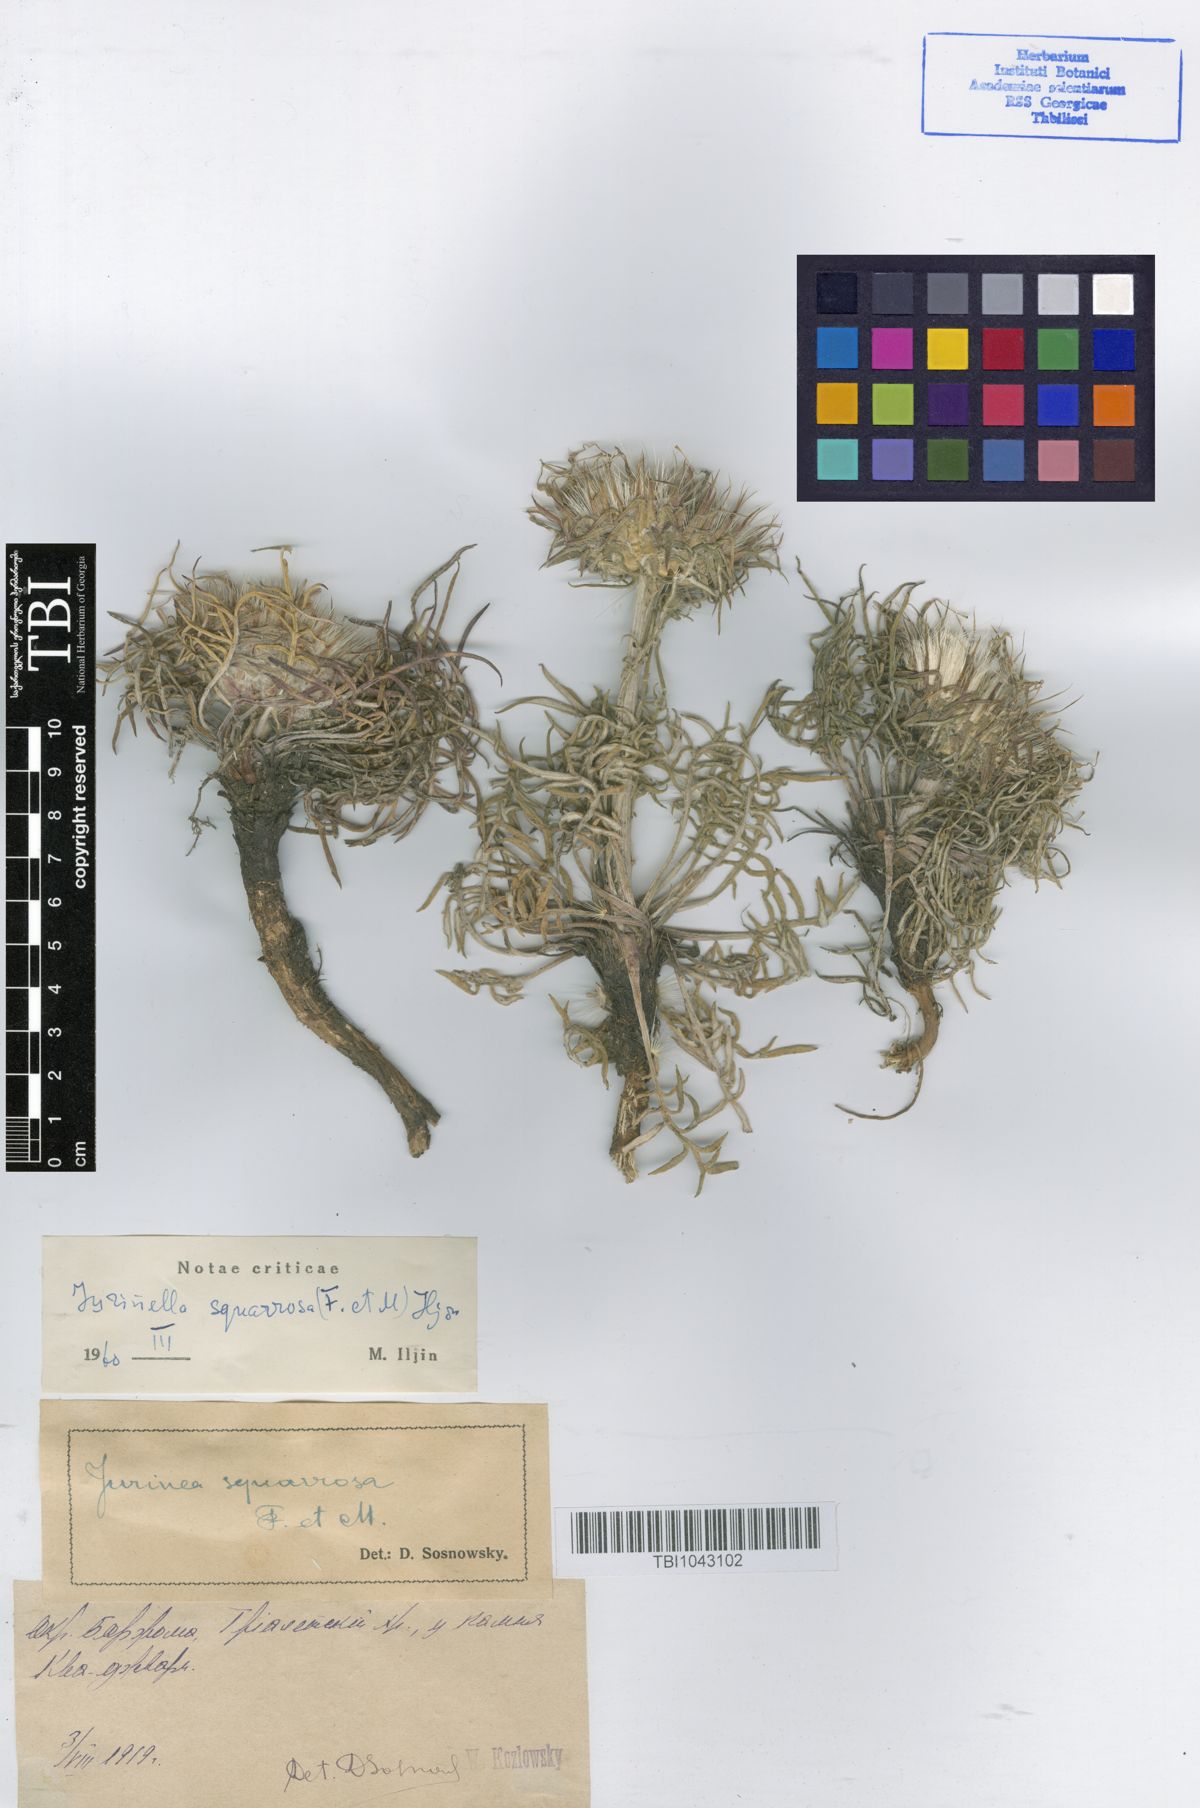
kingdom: Plantae
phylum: Tracheophyta
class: Magnoliopsida
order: Asterales
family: Asteraceae
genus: Jurinea
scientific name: Jurinea squarrosa
